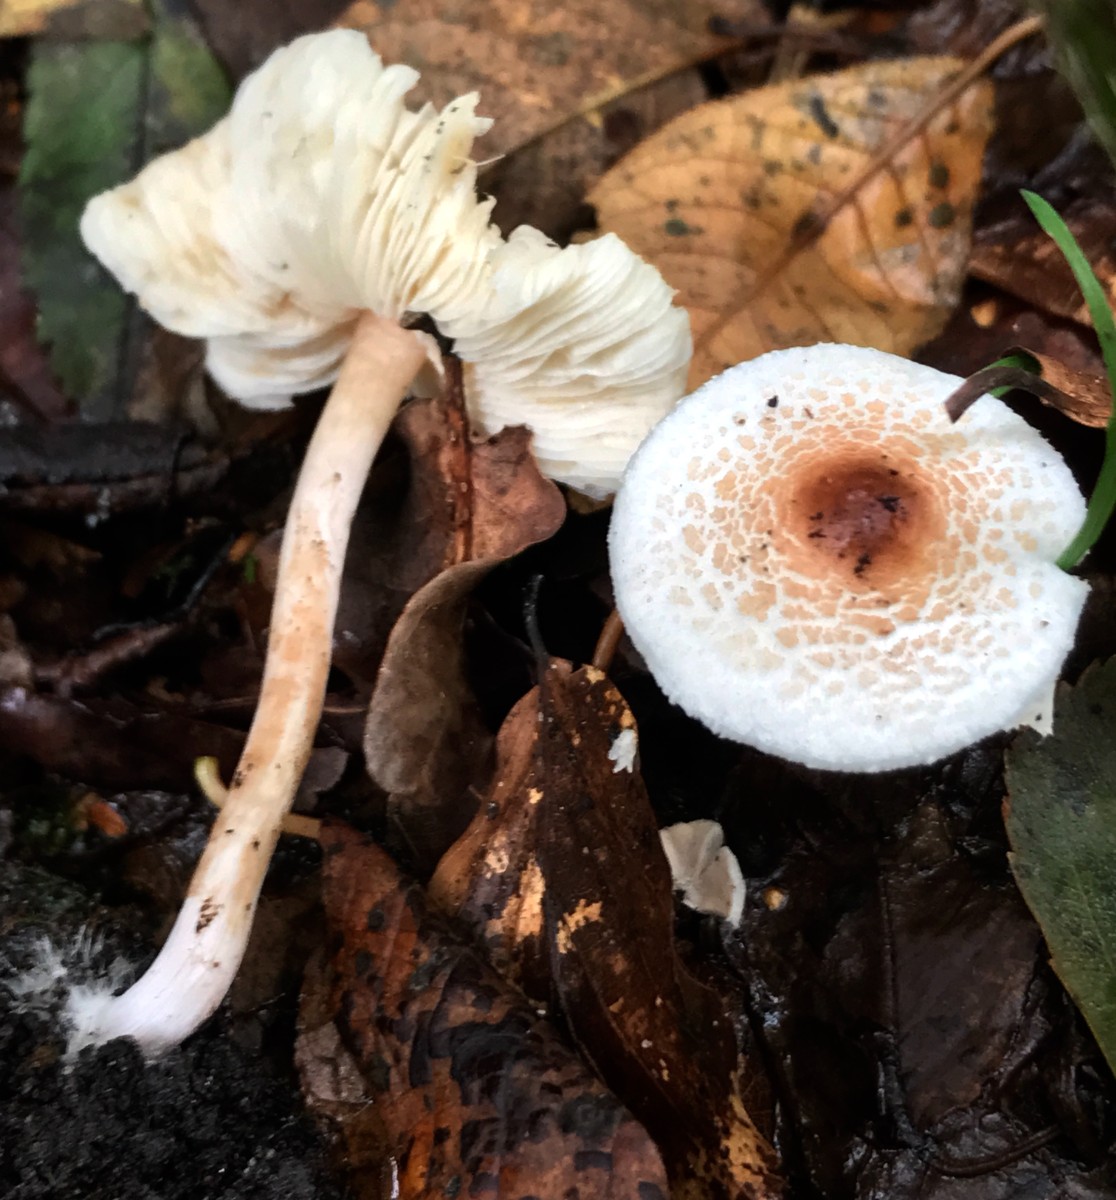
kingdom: Fungi
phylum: Basidiomycota
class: Agaricomycetes
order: Agaricales
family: Agaricaceae
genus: Lepiota
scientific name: Lepiota cristata
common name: stinkende parasolhat
